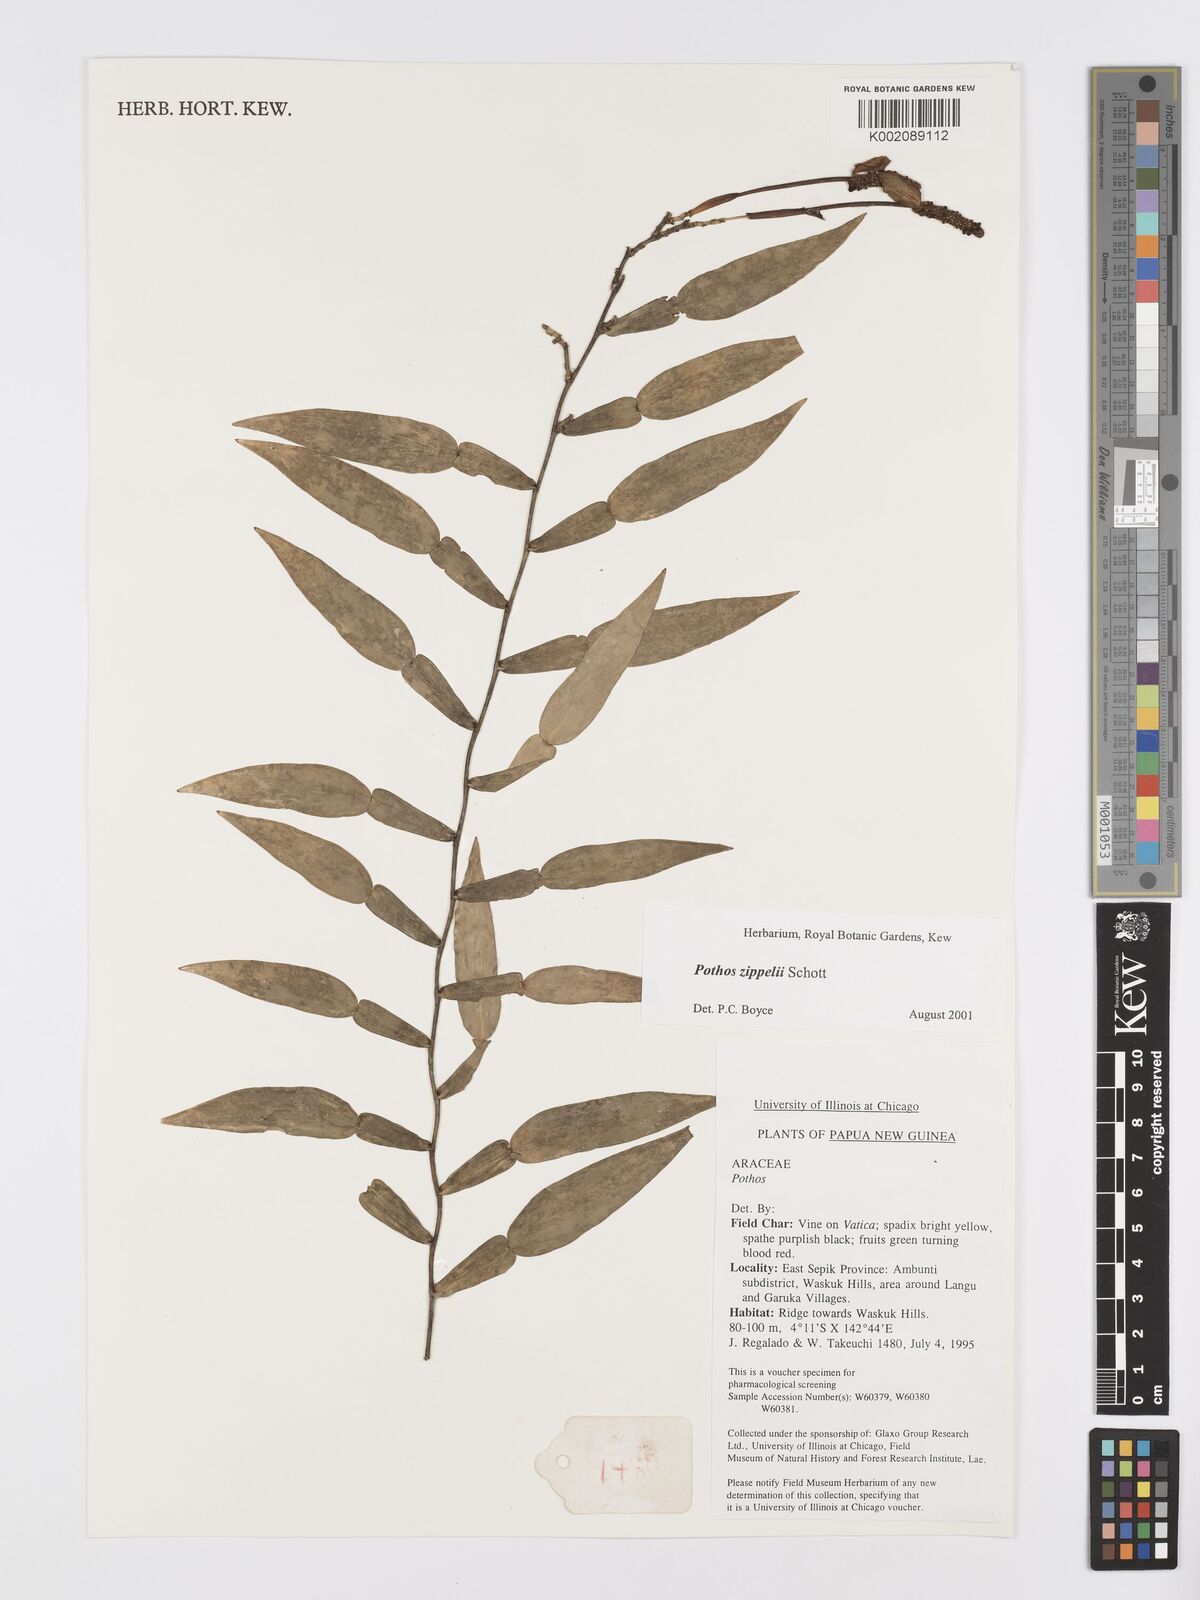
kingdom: Plantae
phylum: Tracheophyta
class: Liliopsida
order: Alismatales
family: Araceae
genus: Pothos
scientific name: Pothos zippelii
